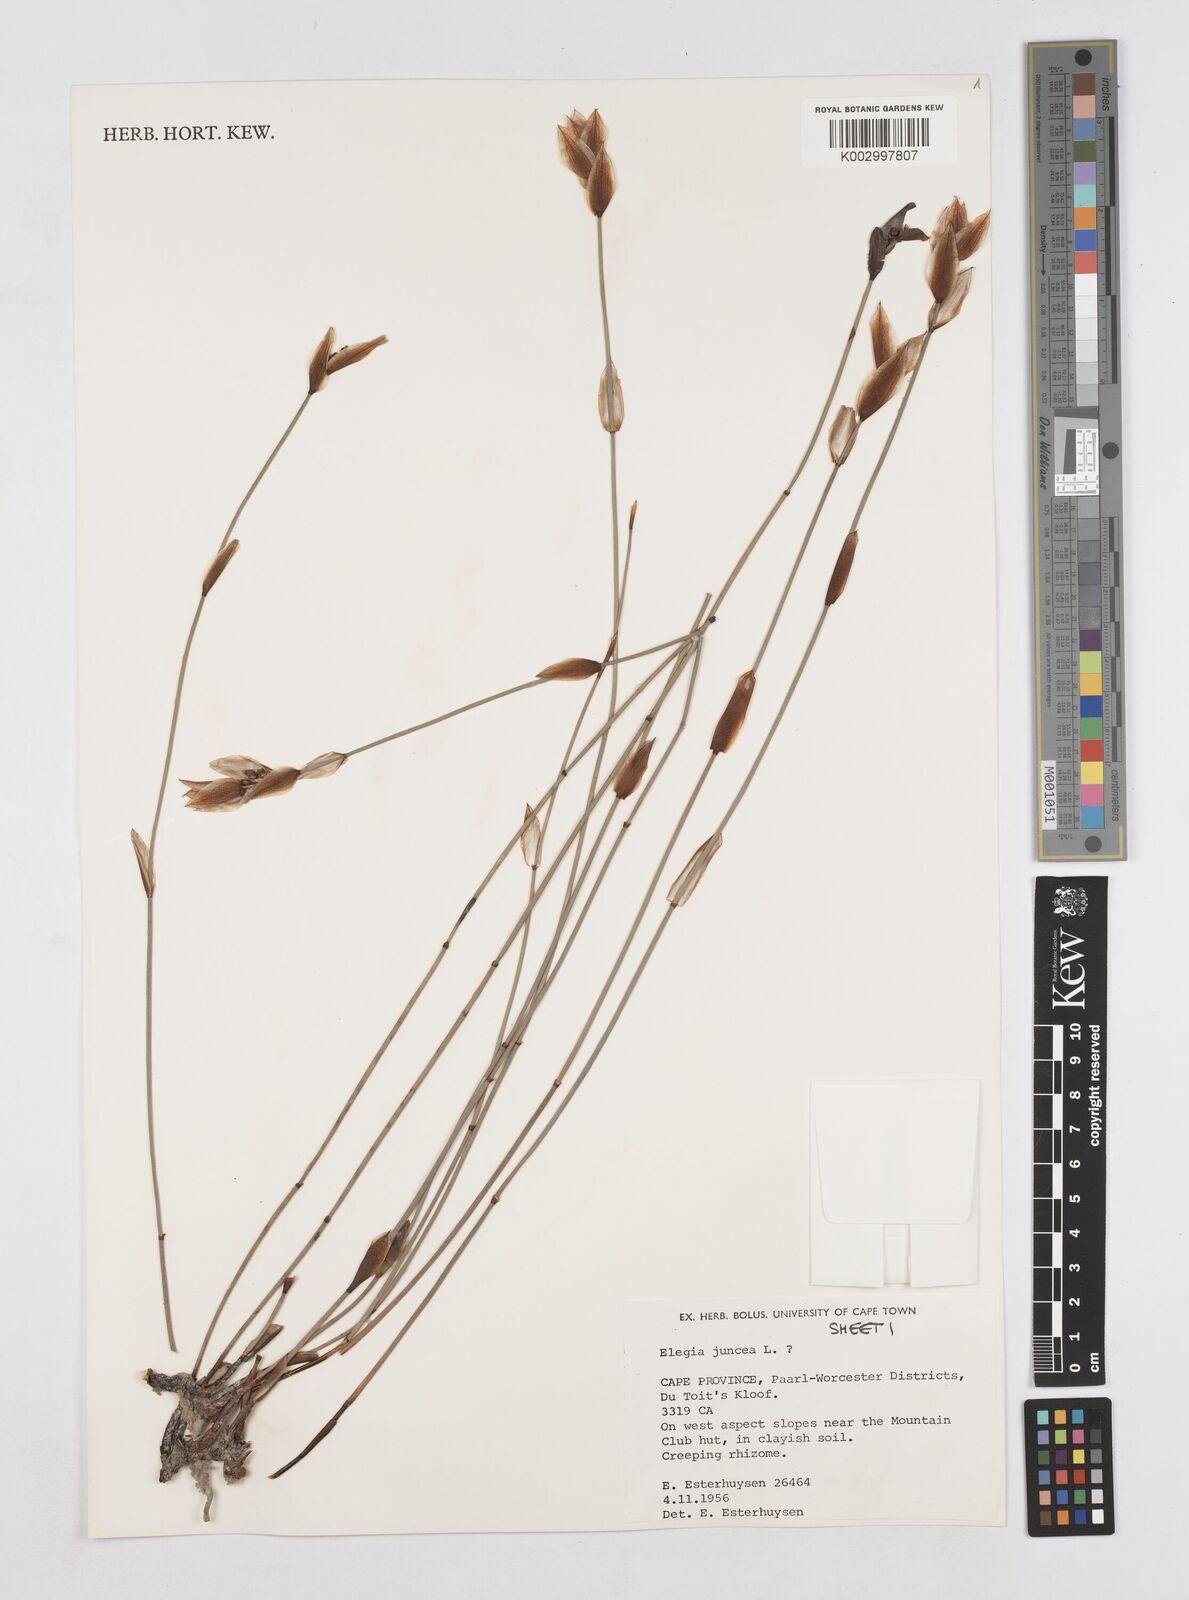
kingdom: Plantae
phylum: Tracheophyta
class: Liliopsida
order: Poales
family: Restionaceae
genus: Elegia
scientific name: Elegia juncea
